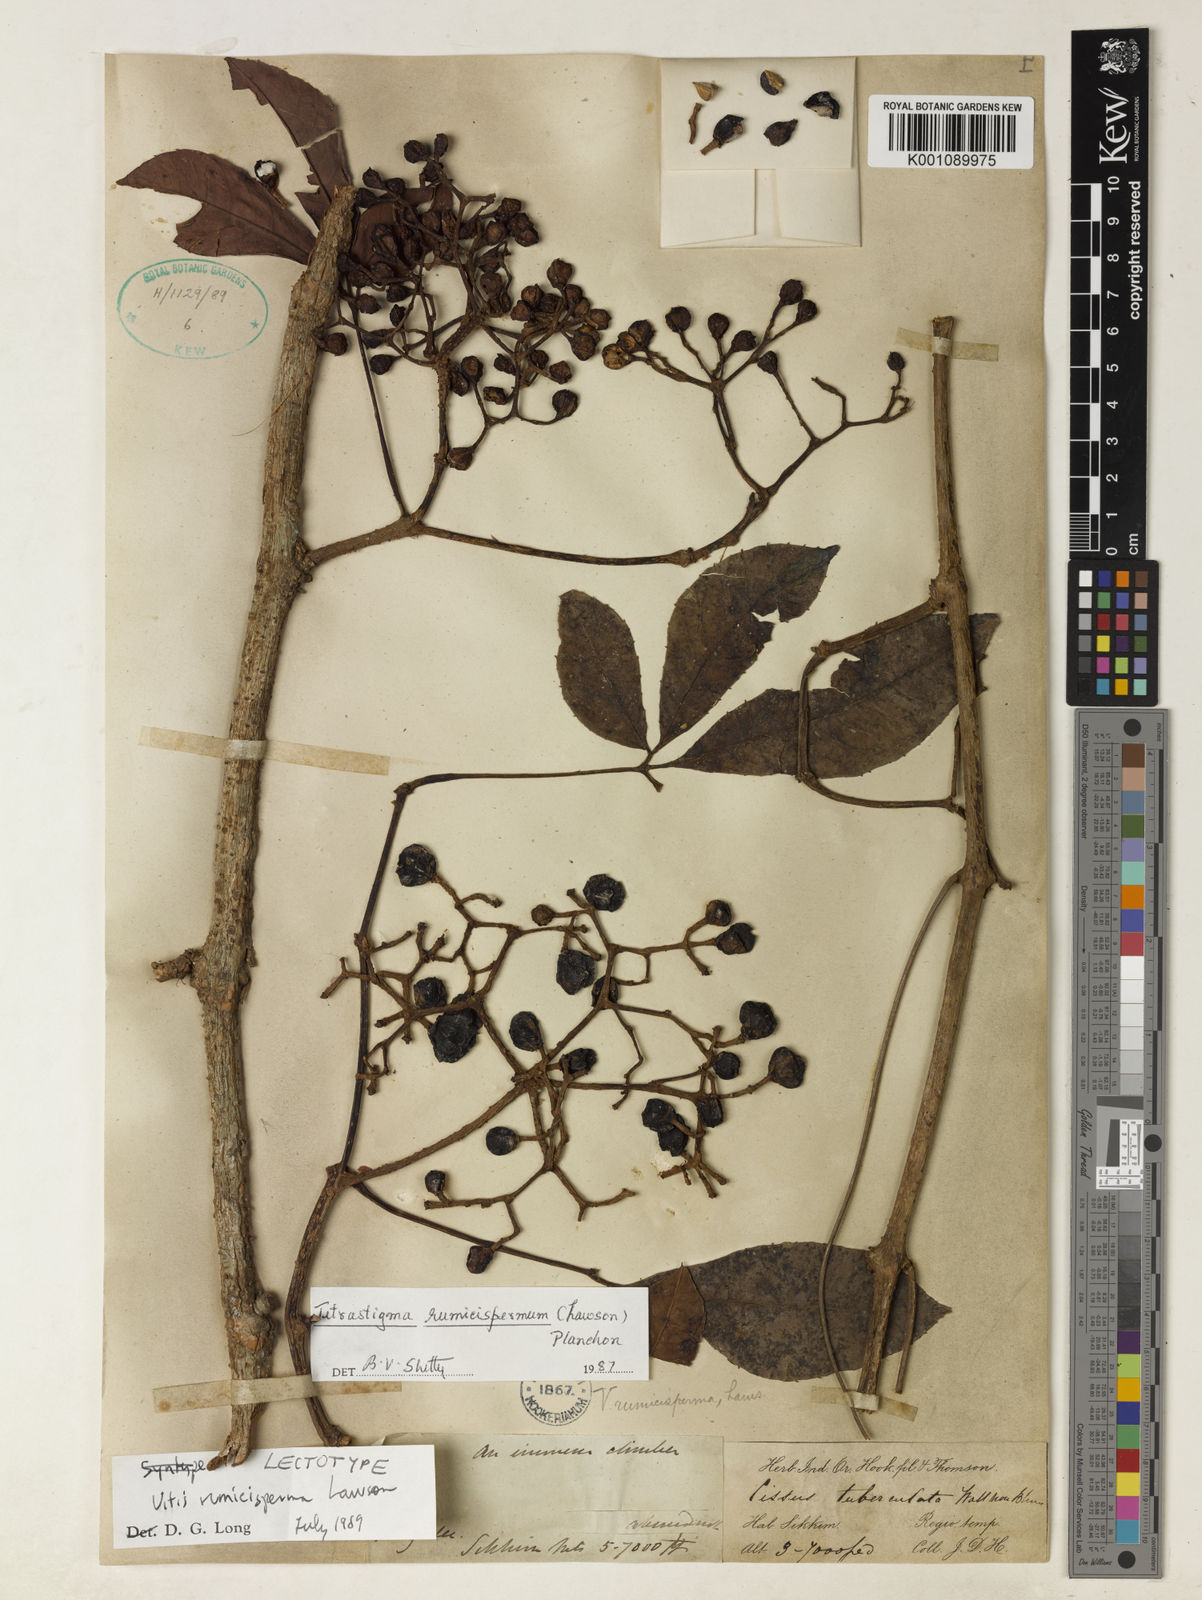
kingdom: Plantae
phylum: Tracheophyta
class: Magnoliopsida
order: Vitales
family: Vitaceae
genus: Tetrastigma
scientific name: Tetrastigma rumicispermum
